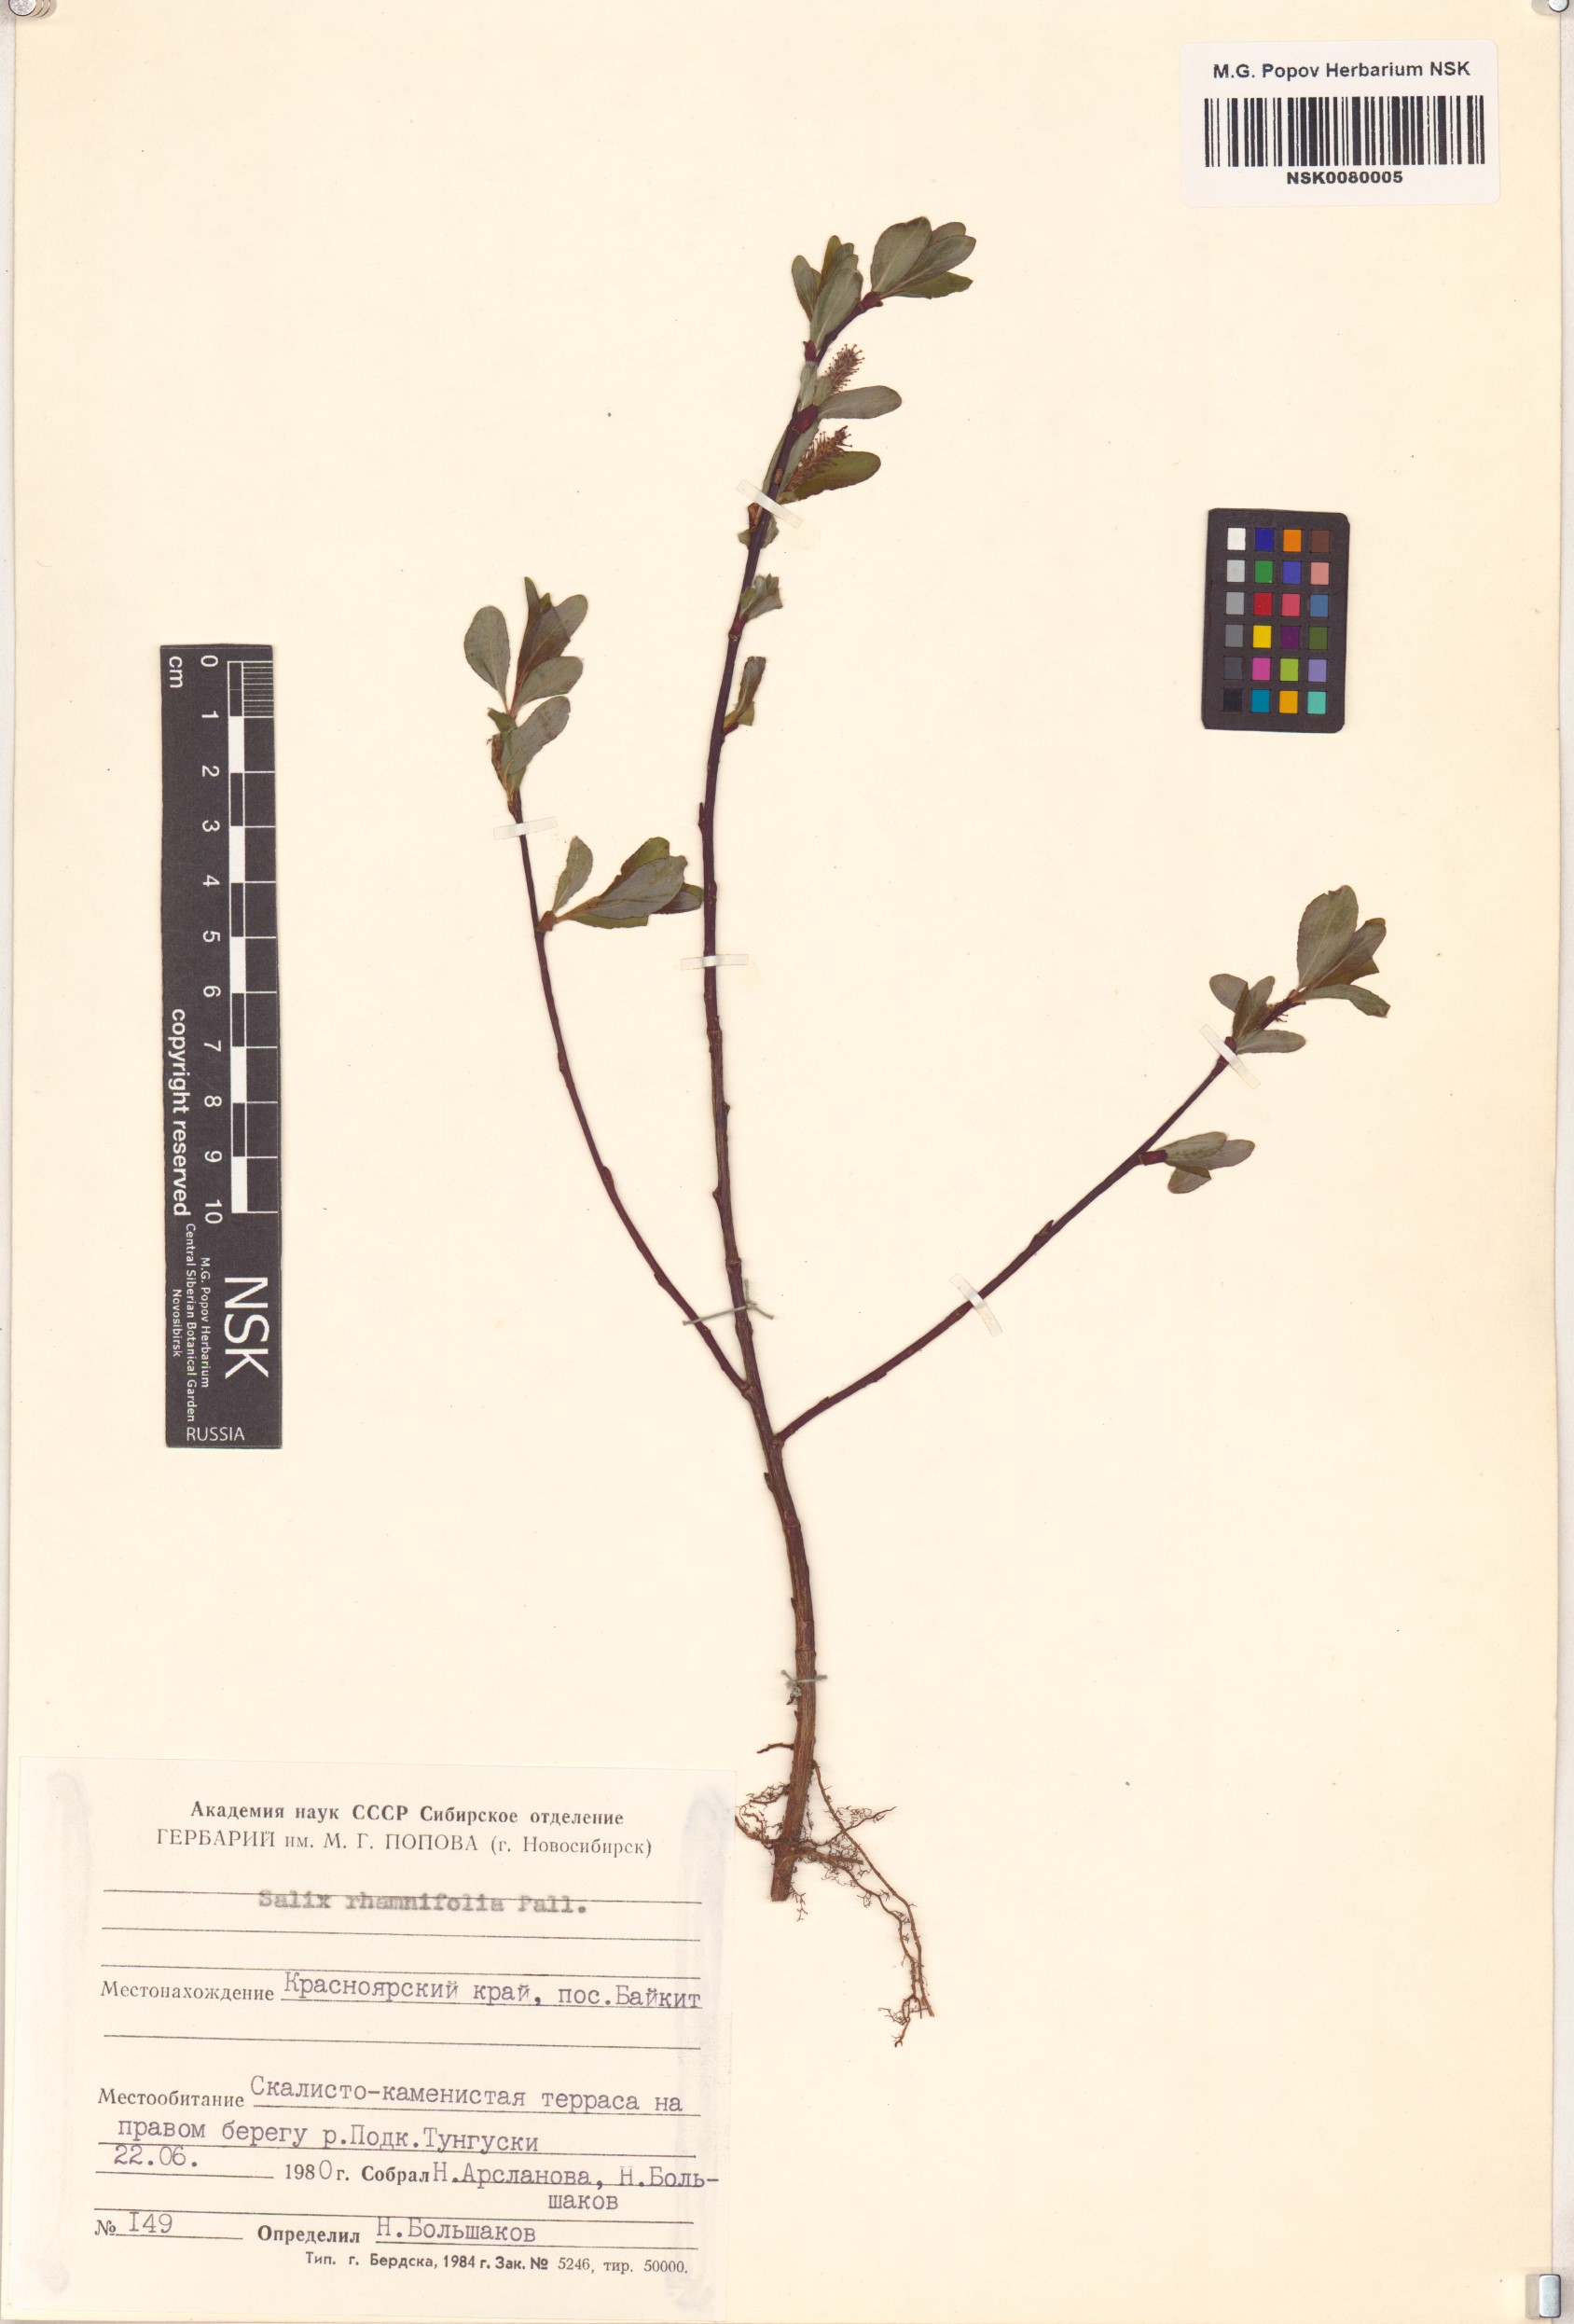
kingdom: Plantae
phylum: Tracheophyta
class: Magnoliopsida
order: Malpighiales
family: Salicaceae
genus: Salix
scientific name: Salix rhamnifolia
